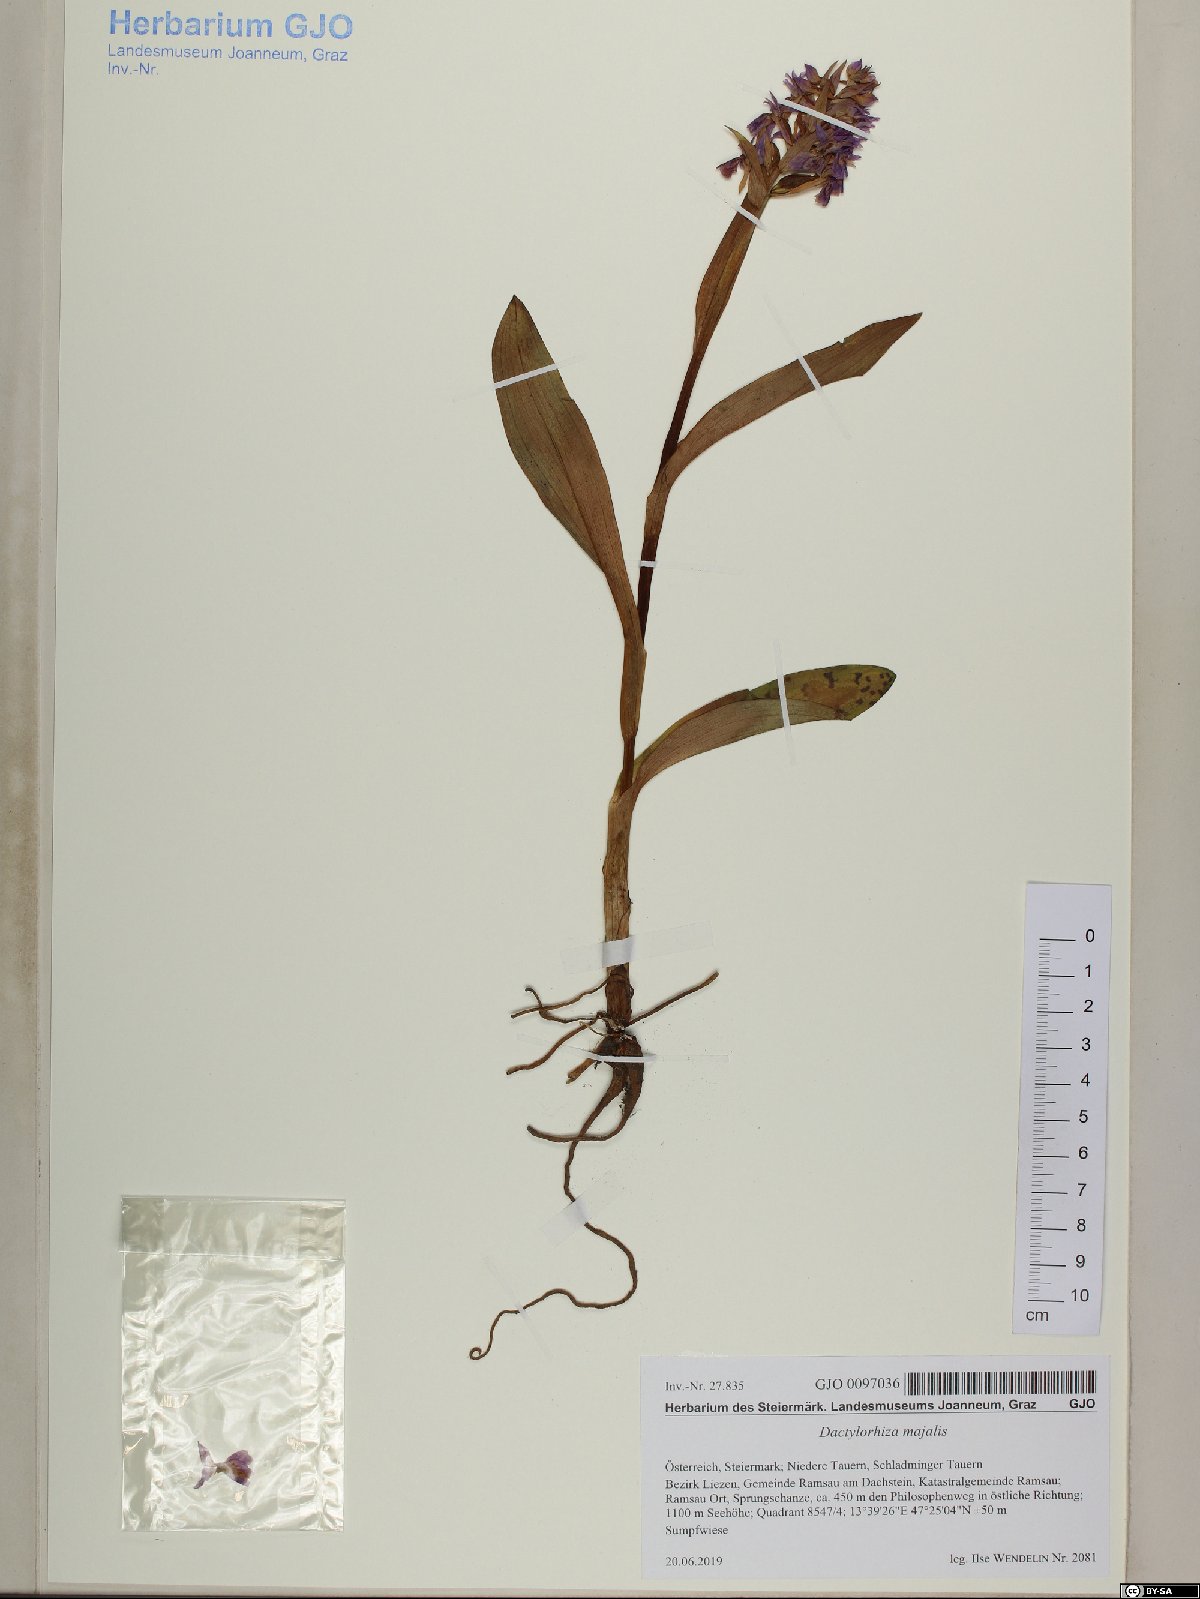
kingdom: Plantae
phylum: Tracheophyta
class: Liliopsida
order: Asparagales
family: Orchidaceae
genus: Dactylorhiza
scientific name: Dactylorhiza majalis
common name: Marsh orchid
